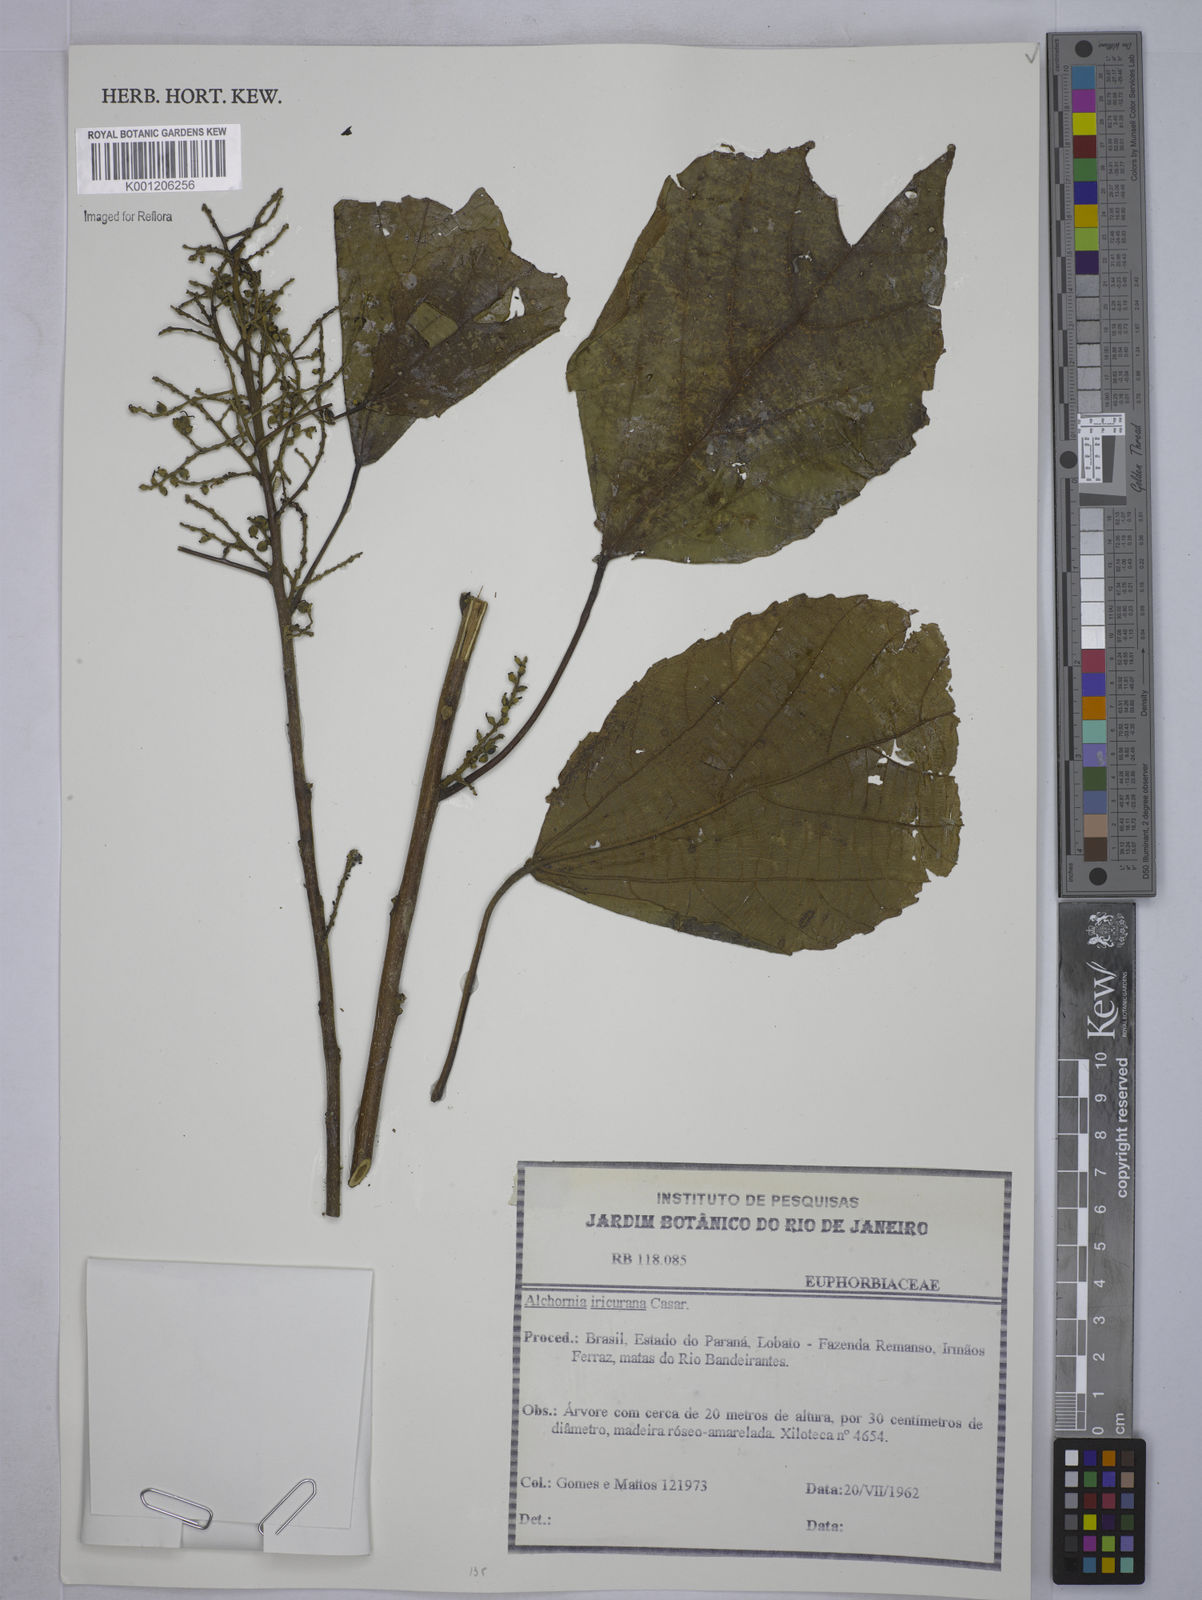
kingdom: Plantae
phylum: Tracheophyta
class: Magnoliopsida
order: Malpighiales
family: Euphorbiaceae
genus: Alchornea
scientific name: Alchornea glandulosa
